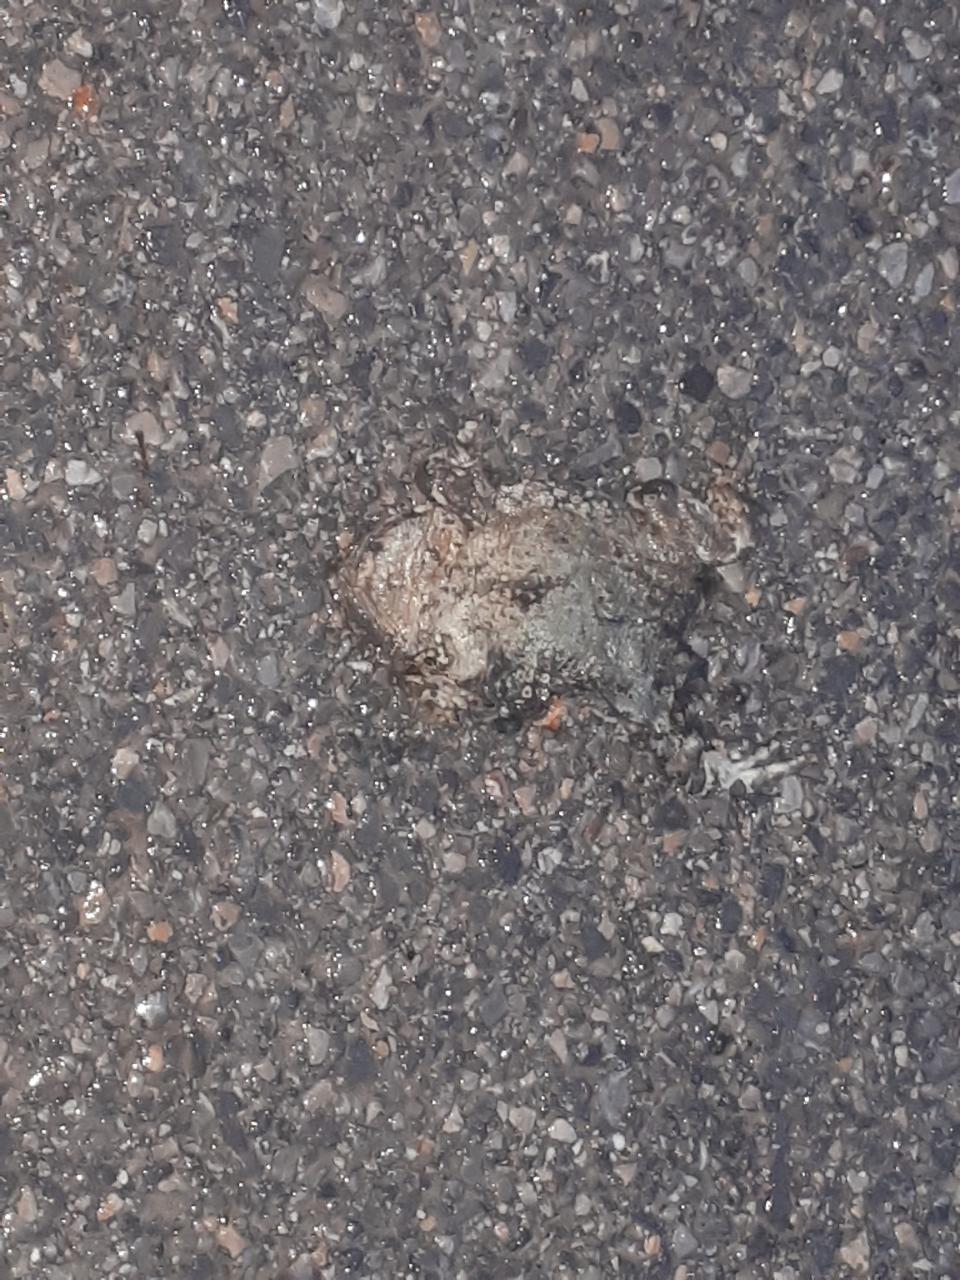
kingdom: Animalia
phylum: Chordata
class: Amphibia
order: Anura
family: Bufonidae
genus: Bufotes
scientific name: Bufotes viridis
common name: European green toad
